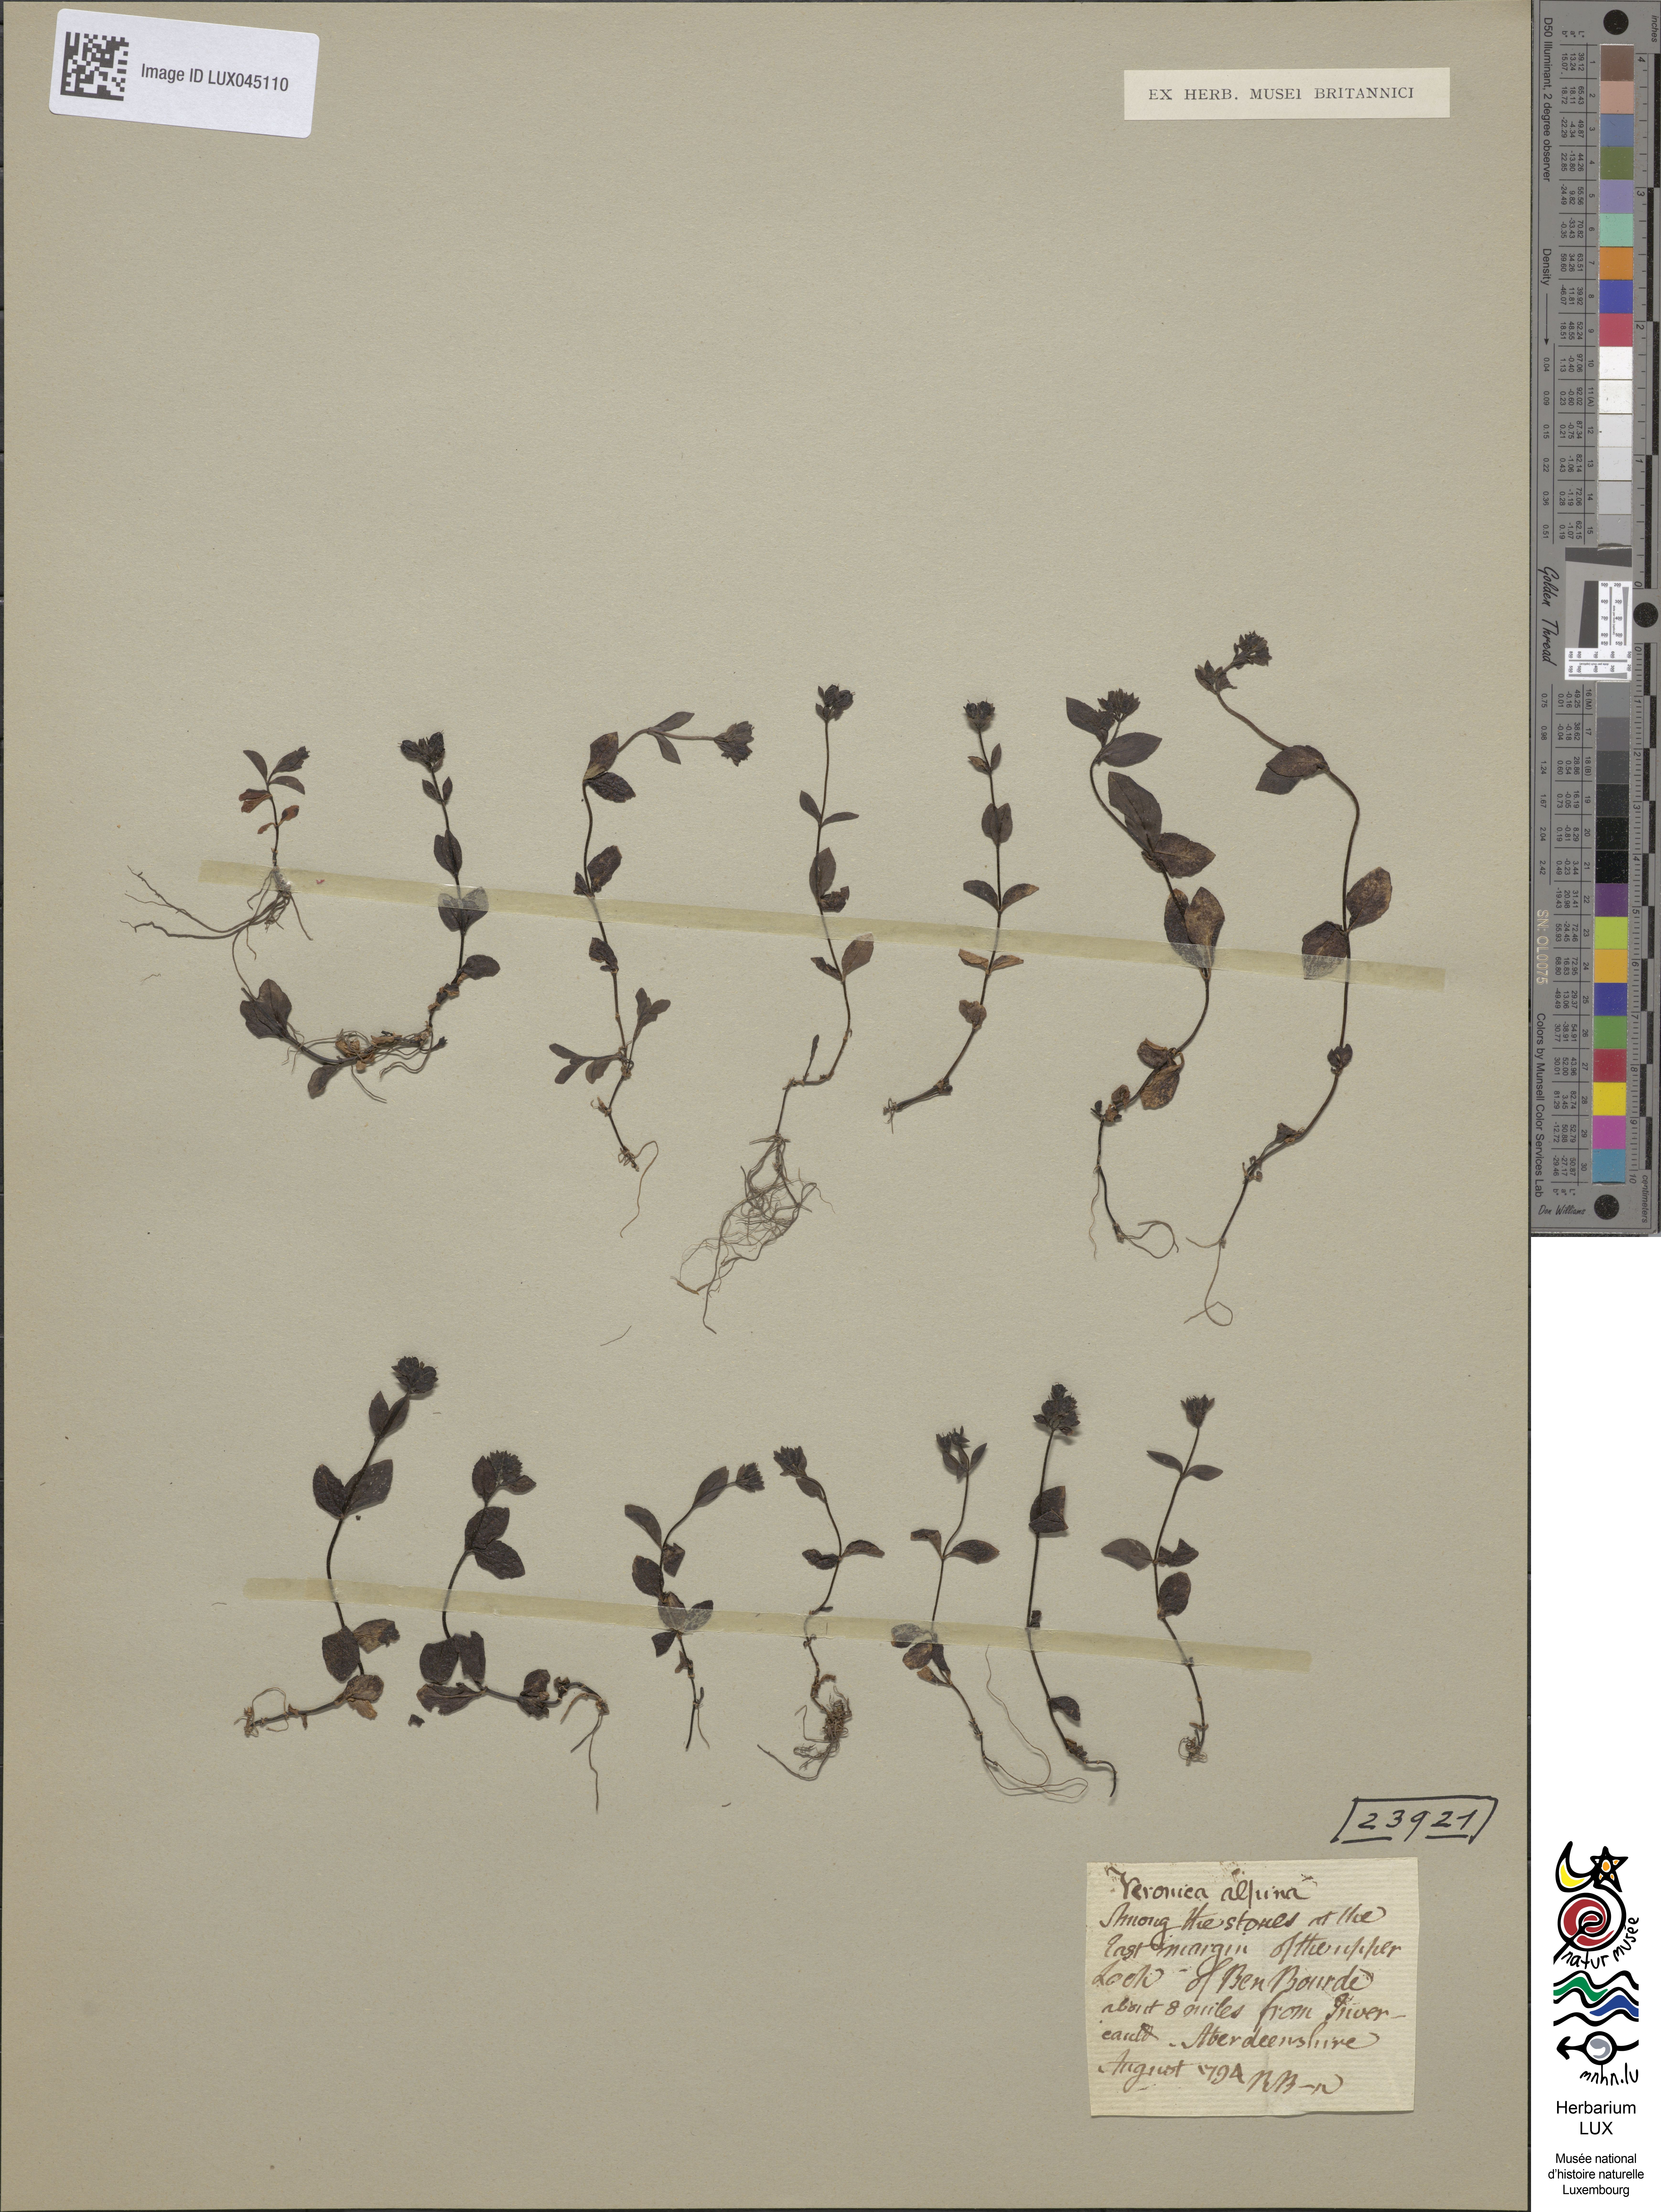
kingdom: Plantae
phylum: Tracheophyta
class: Magnoliopsida
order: Lamiales
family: Plantaginaceae
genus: Veronica
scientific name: Veronica alpina
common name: Alpine speedwell
